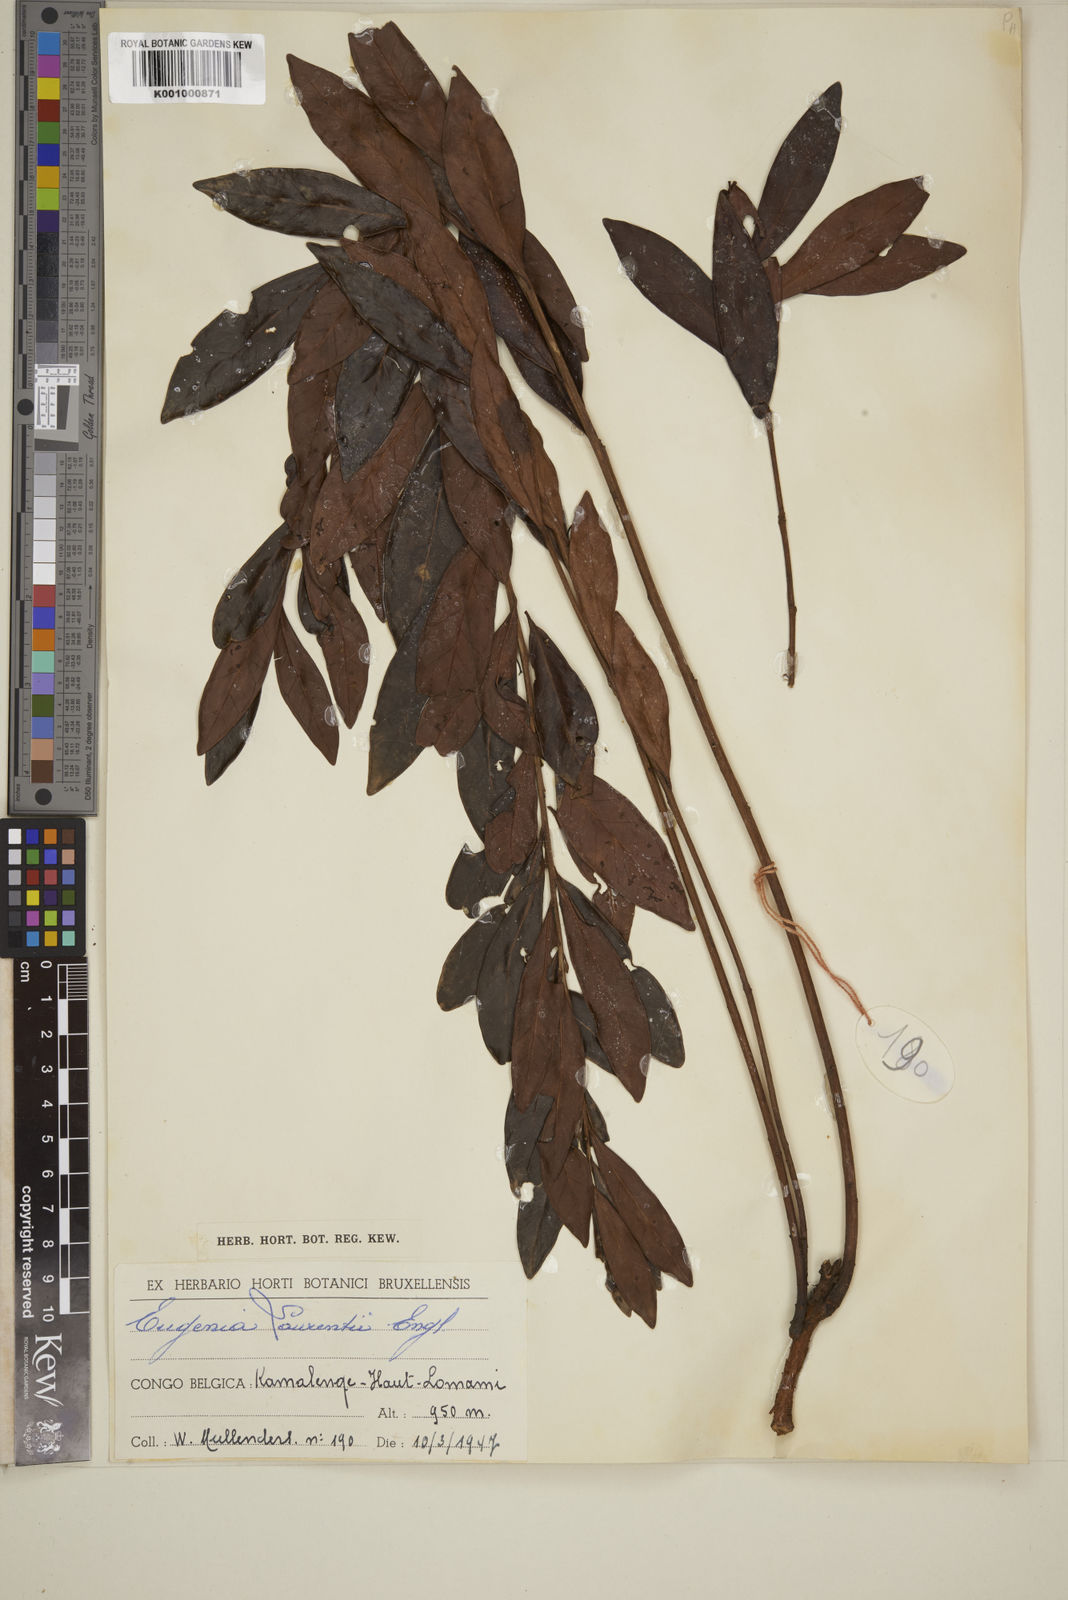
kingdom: Plantae
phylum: Tracheophyta
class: Magnoliopsida
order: Myrtales
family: Myrtaceae
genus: Eugenia
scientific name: Eugenia malangensis
